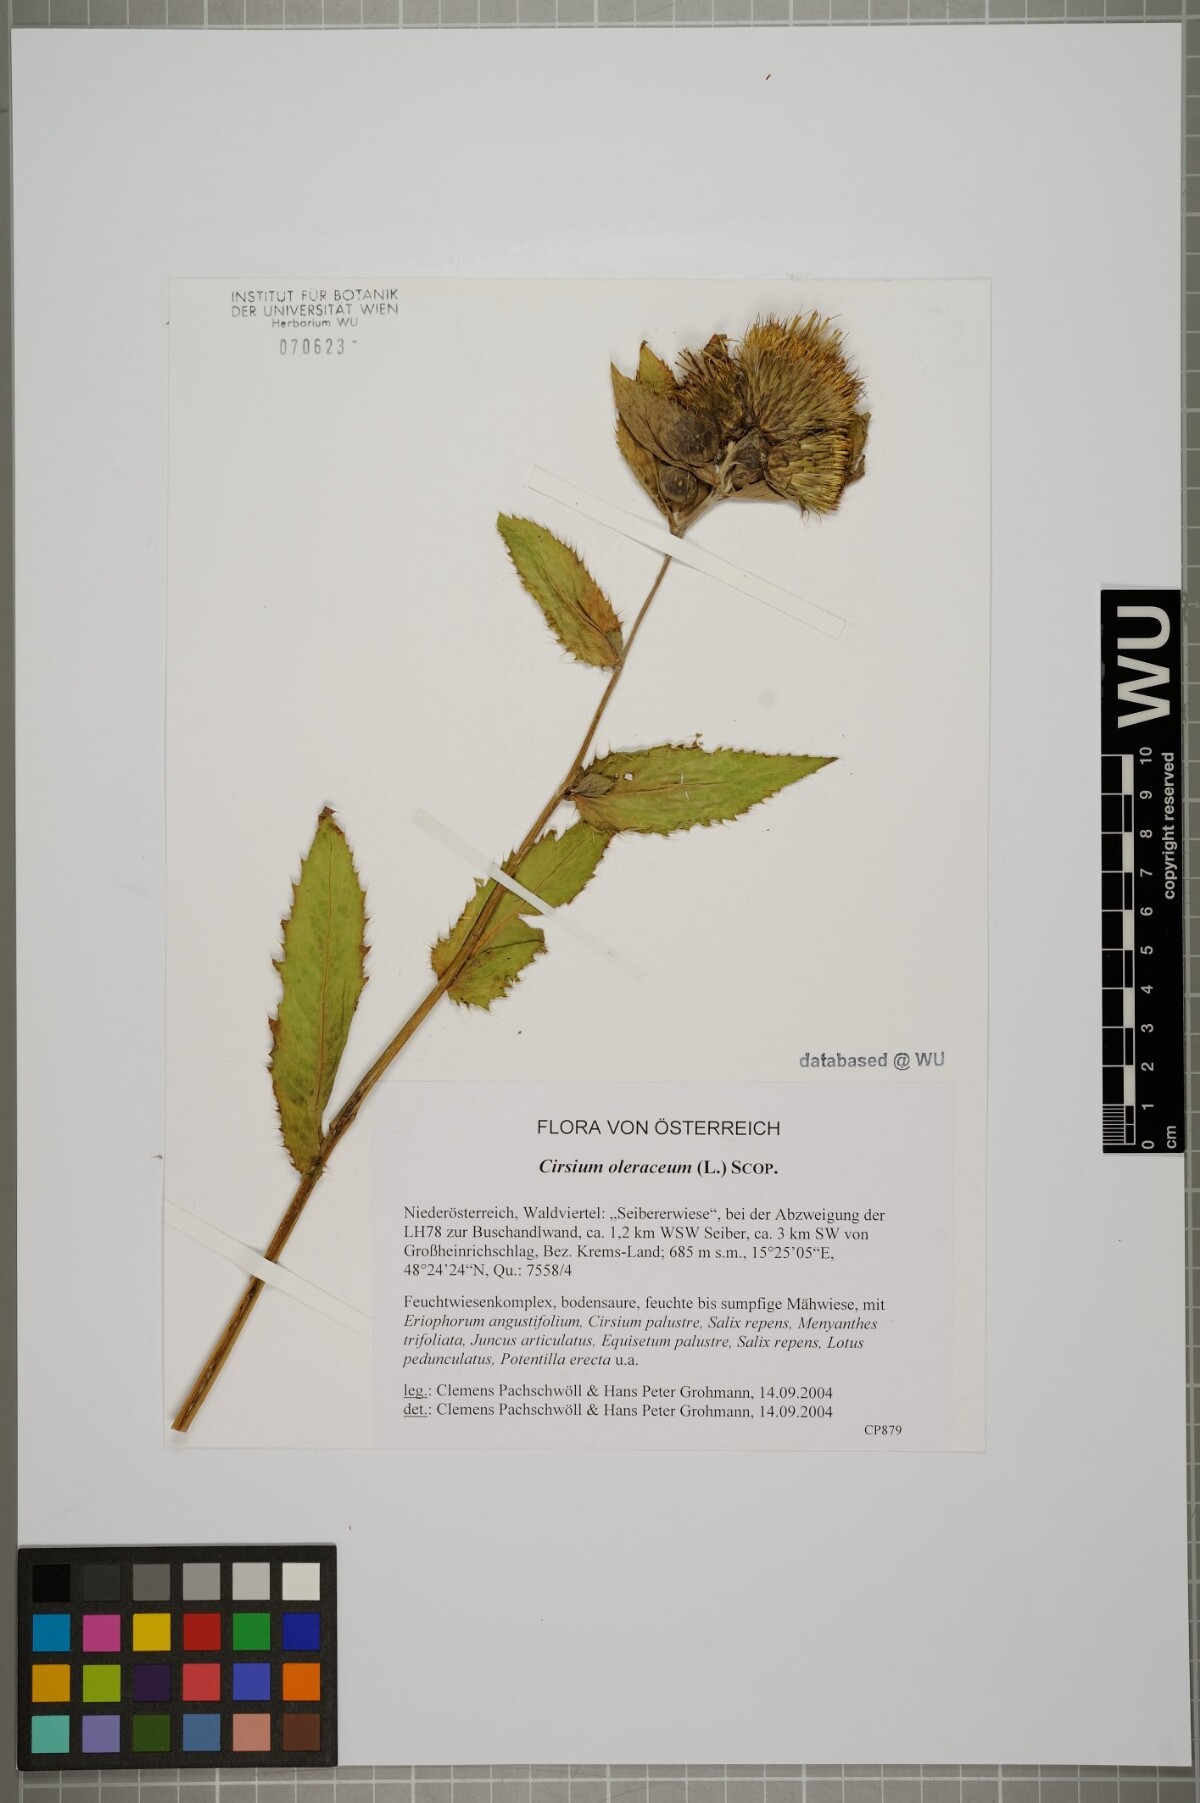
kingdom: Plantae
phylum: Tracheophyta
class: Magnoliopsida
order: Asterales
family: Asteraceae
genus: Cirsium
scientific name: Cirsium oleraceum
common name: Cabbage thistle
